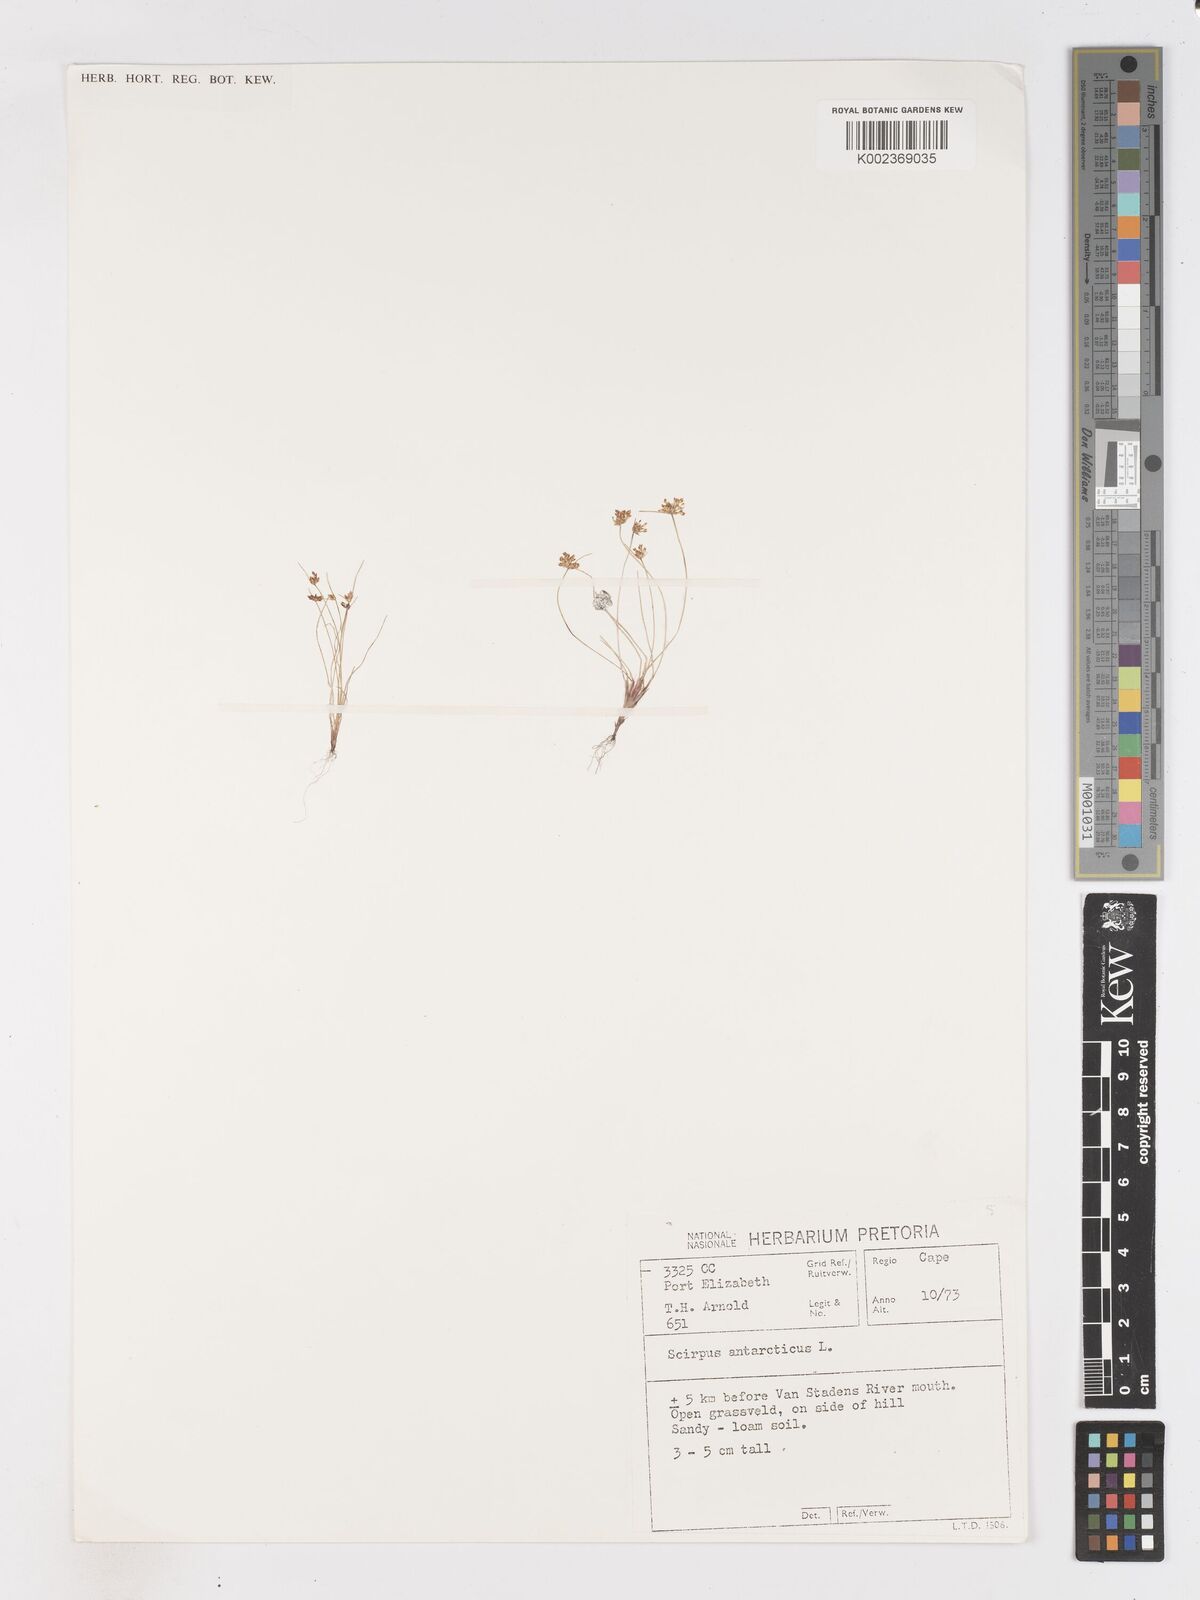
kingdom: Plantae
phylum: Tracheophyta
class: Liliopsida
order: Poales
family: Cyperaceae
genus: Isolepis
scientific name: Isolepis diabolica
